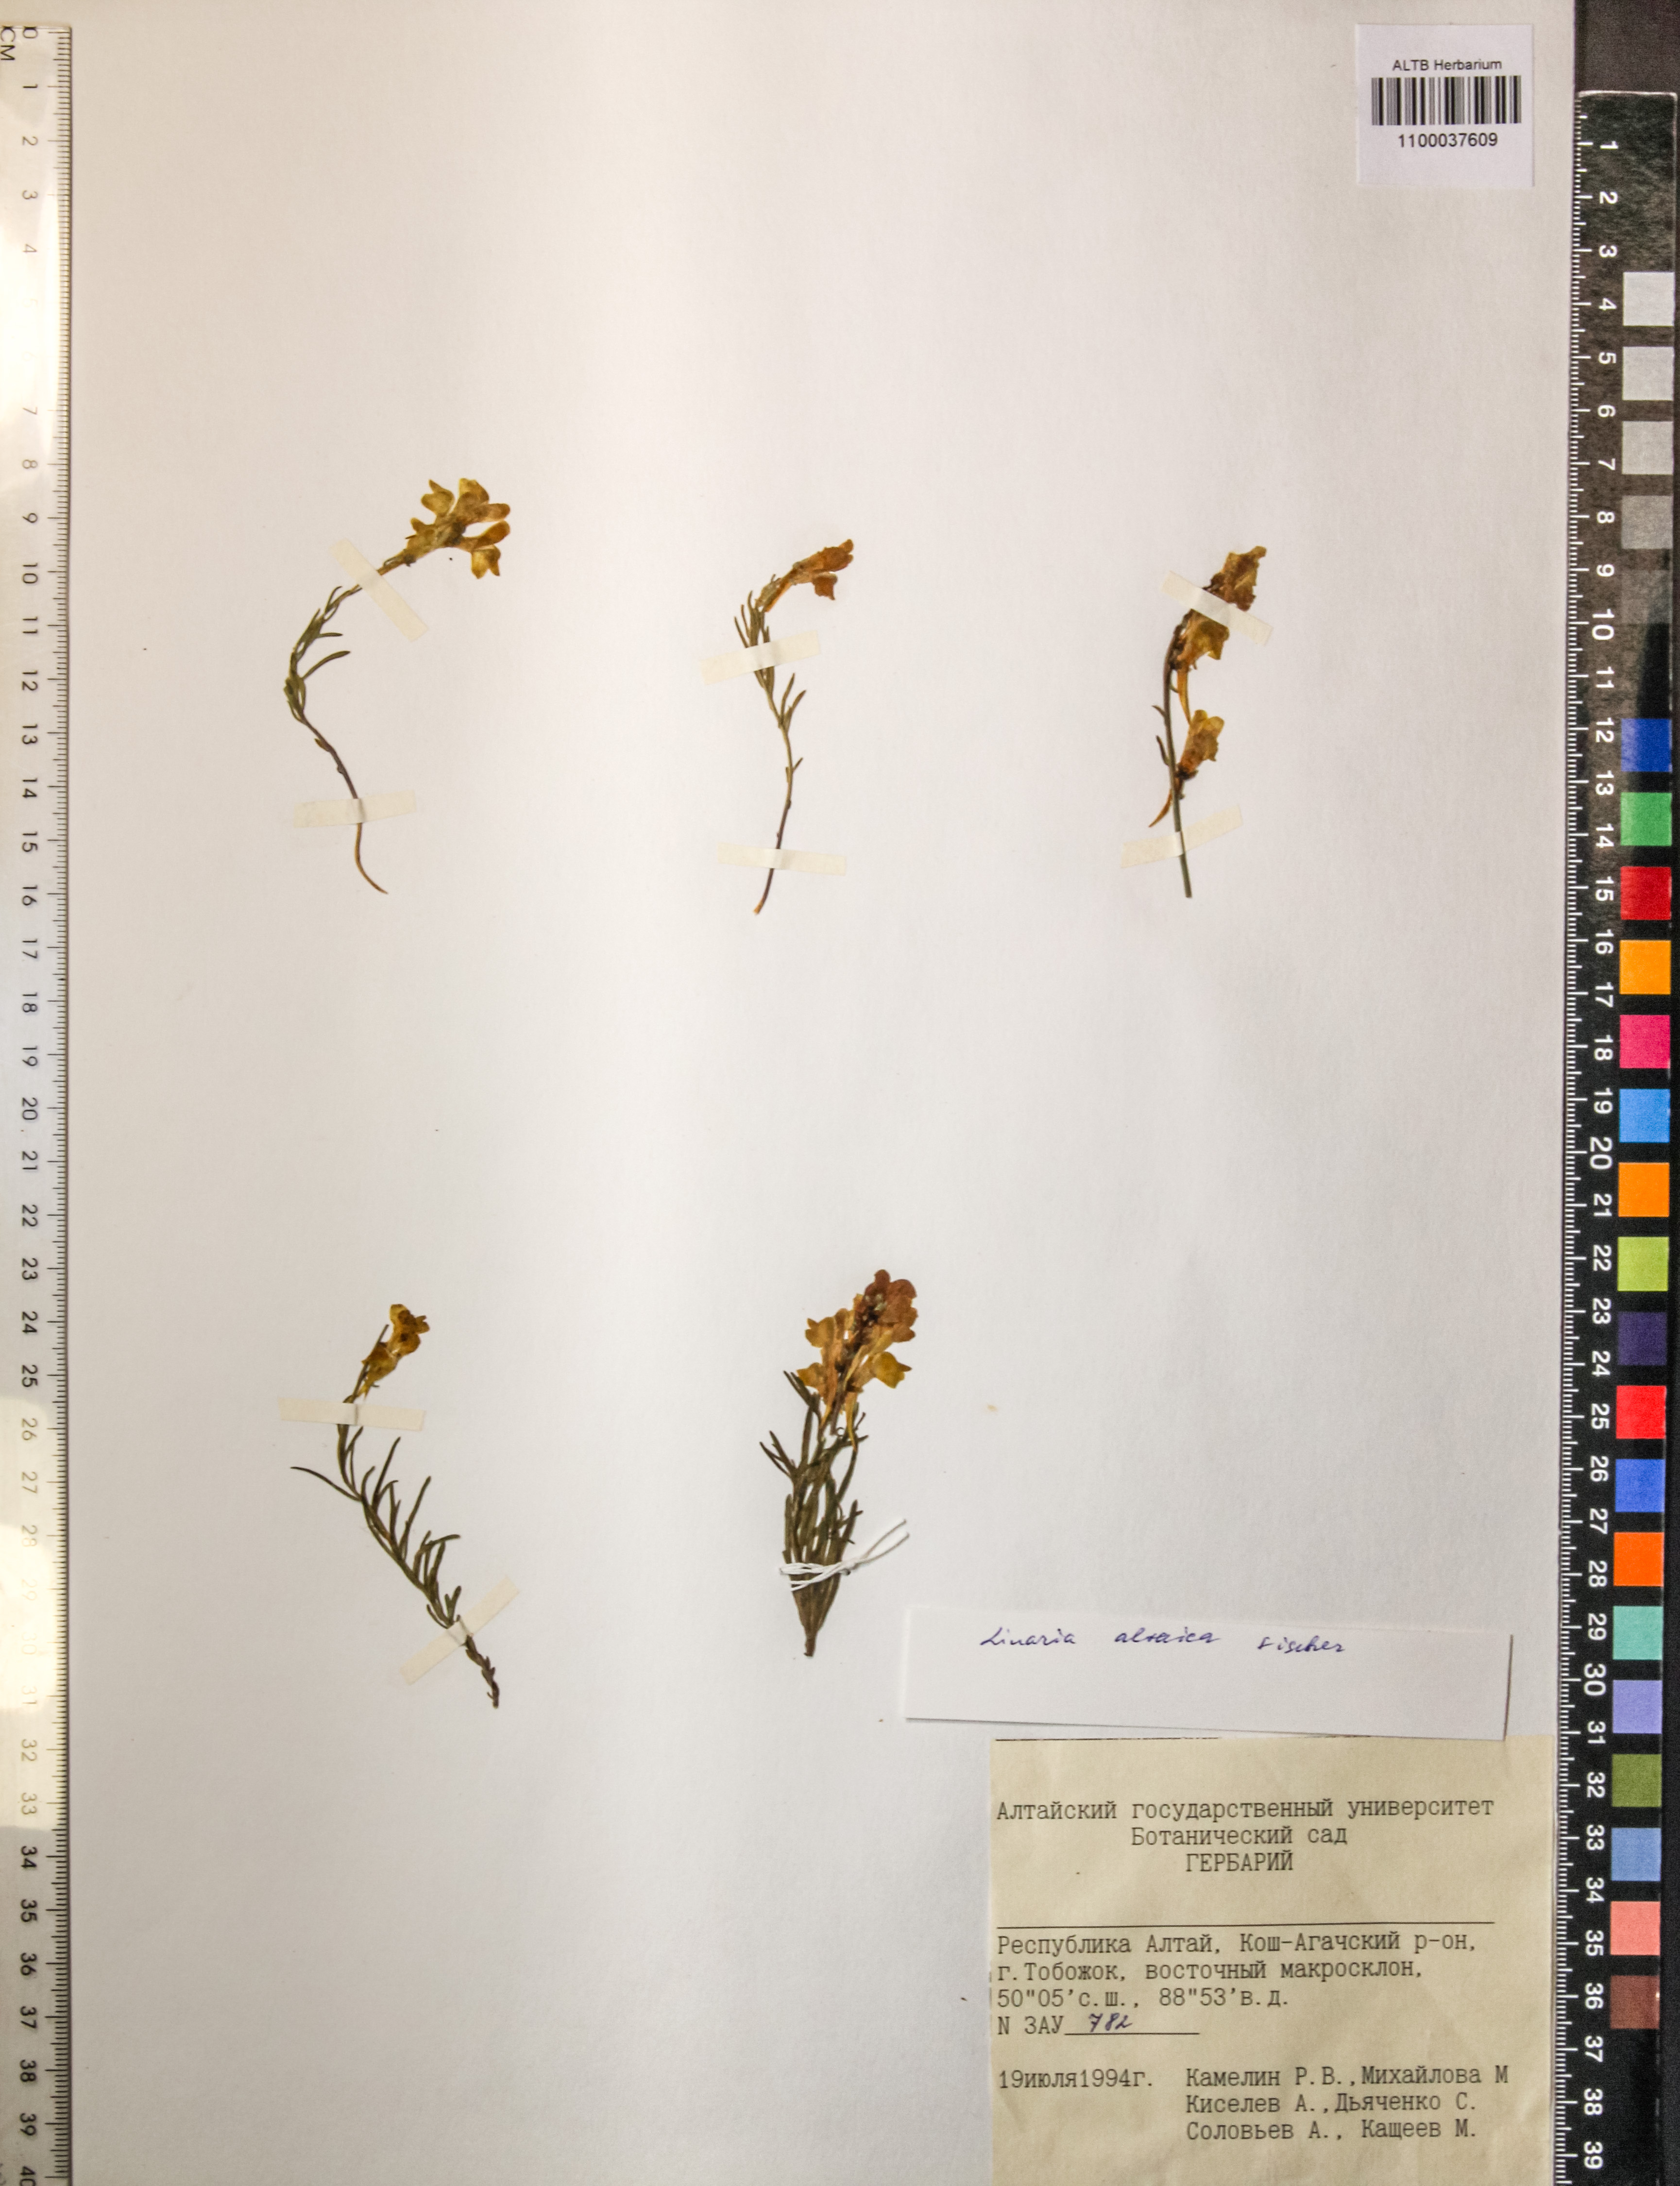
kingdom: Plantae
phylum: Tracheophyta
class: Magnoliopsida
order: Lamiales
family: Plantaginaceae
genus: Linaria
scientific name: Linaria altaica
